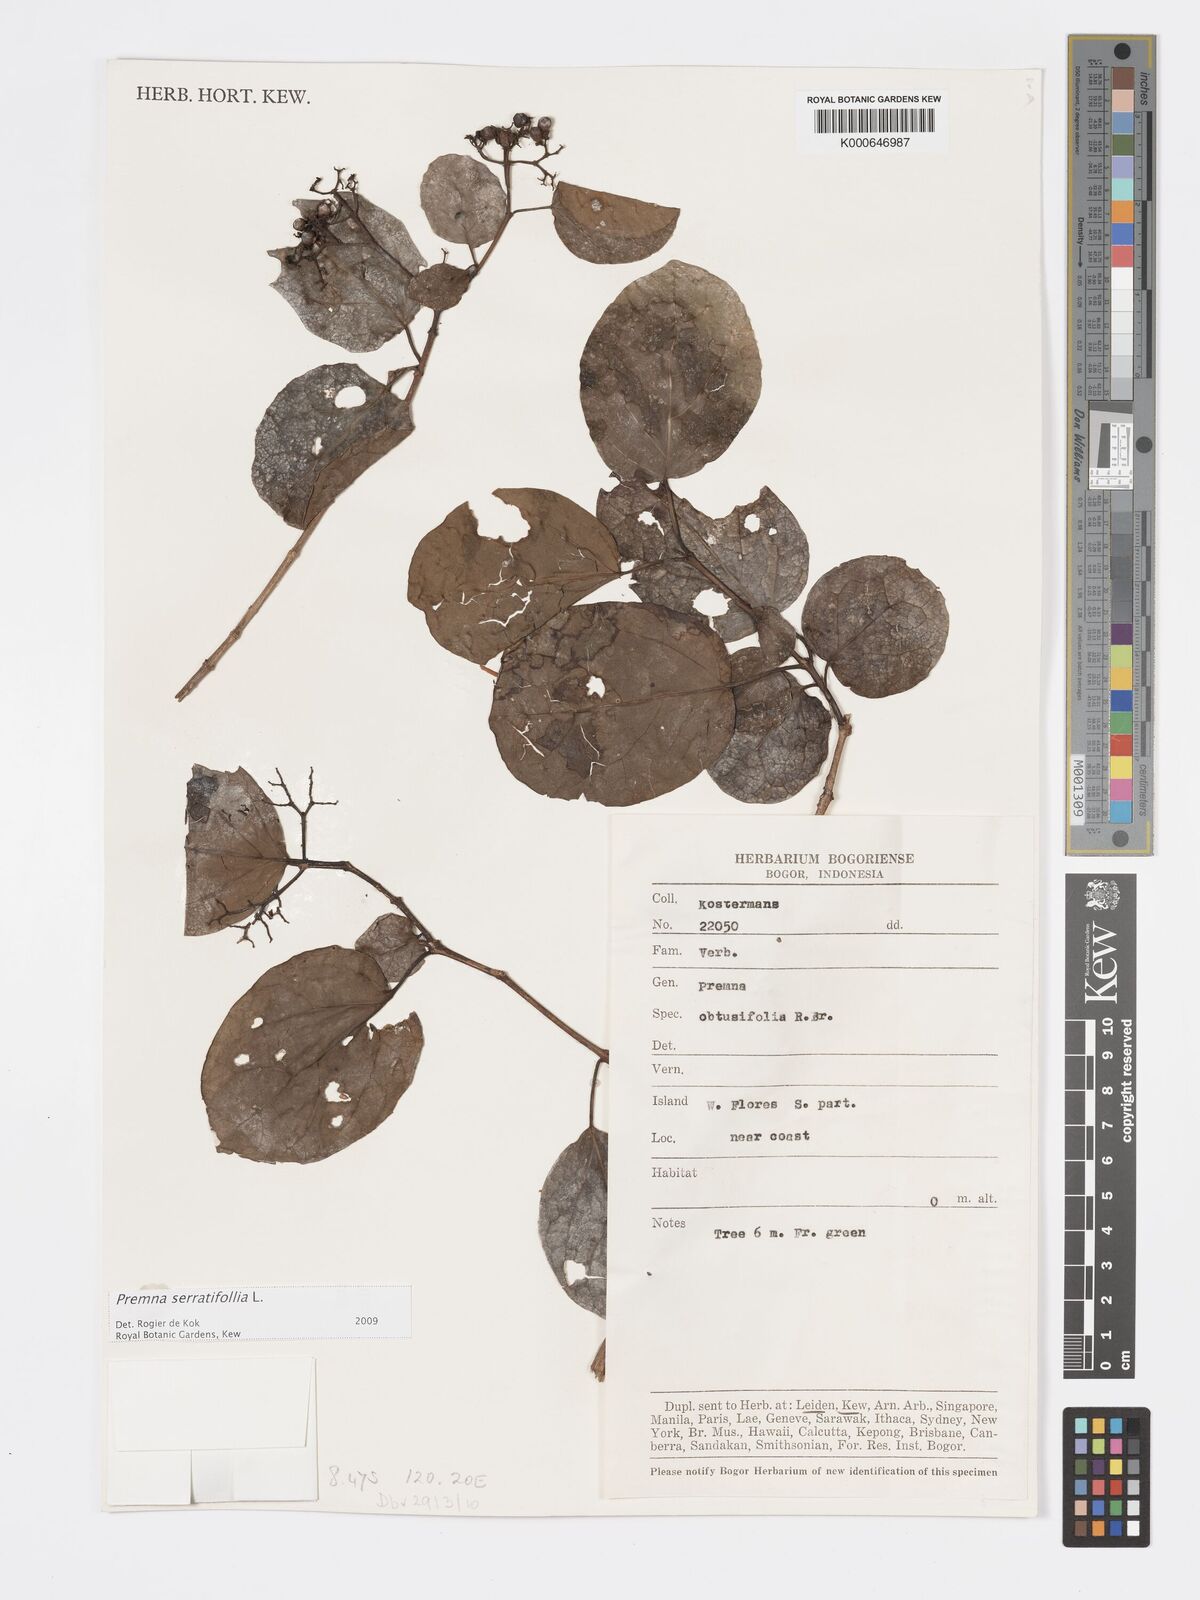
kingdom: Plantae
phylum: Tracheophyta
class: Magnoliopsida
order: Lamiales
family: Lamiaceae
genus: Premna
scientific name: Premna serratifolia
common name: Bastard guelder
